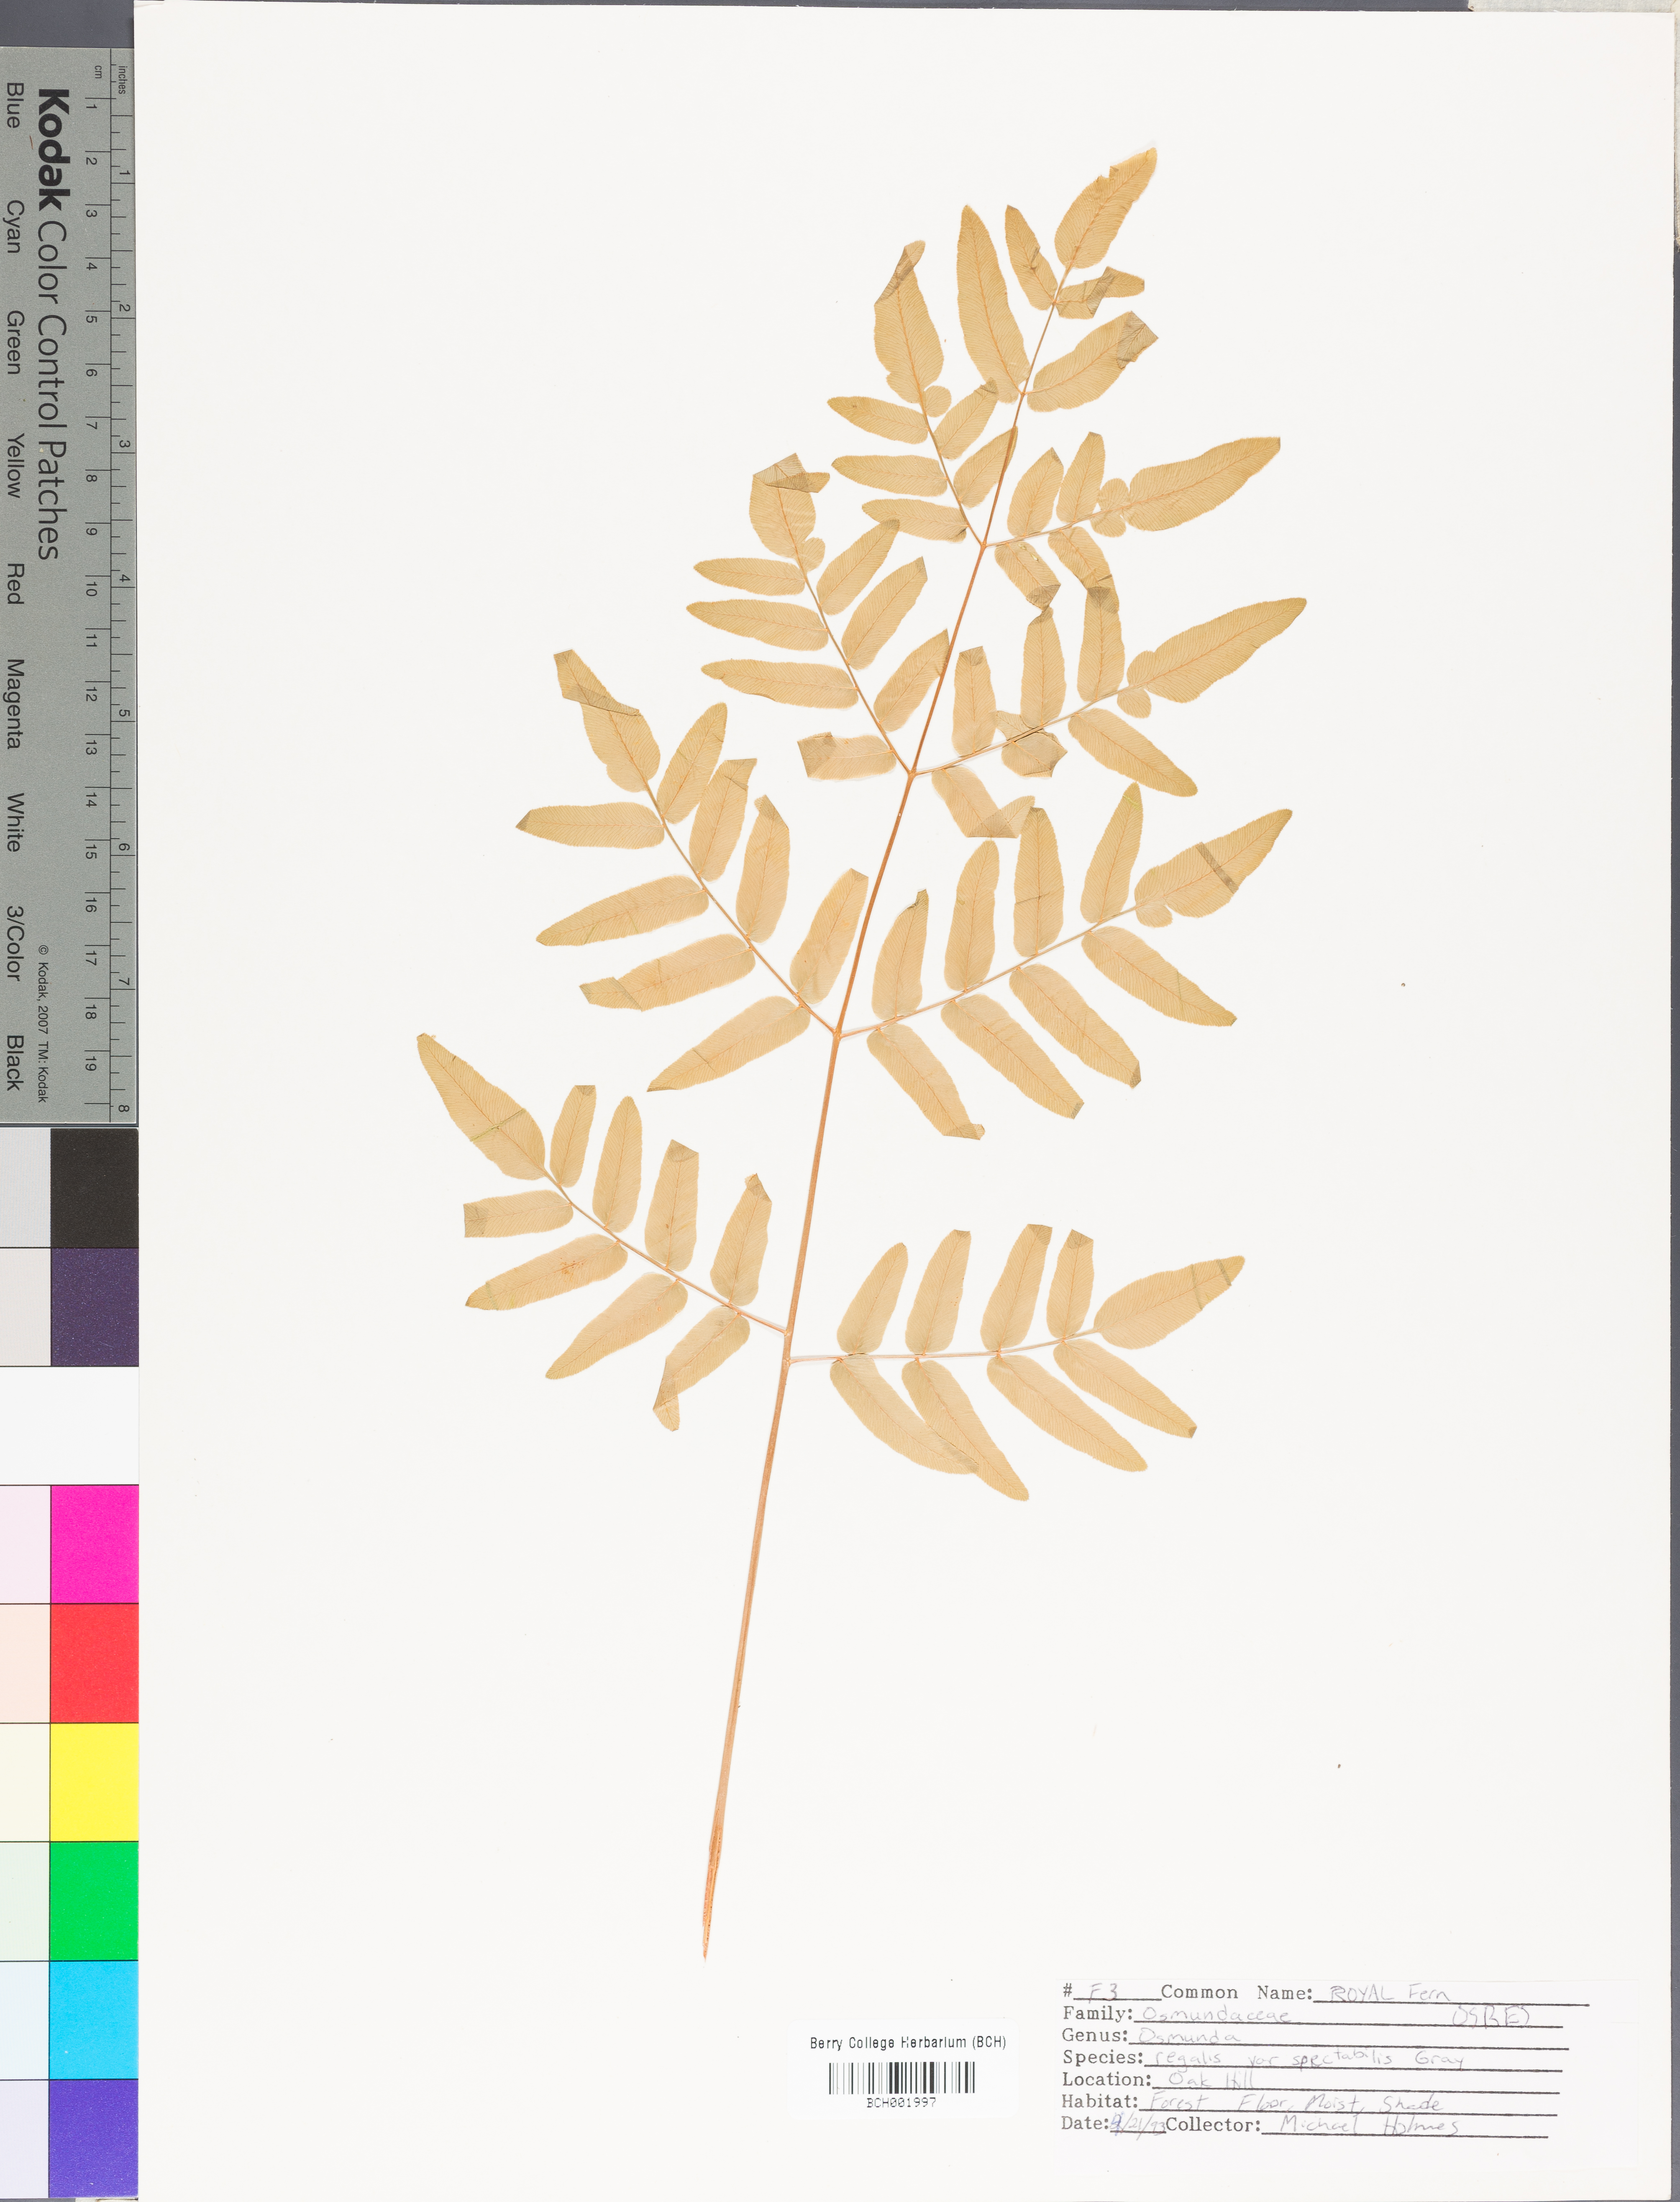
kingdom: Plantae
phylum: Tracheophyta
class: Polypodiopsida
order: Osmundales
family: Osmundaceae
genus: Osmunda
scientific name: Osmunda spectabilis
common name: American royal fern
